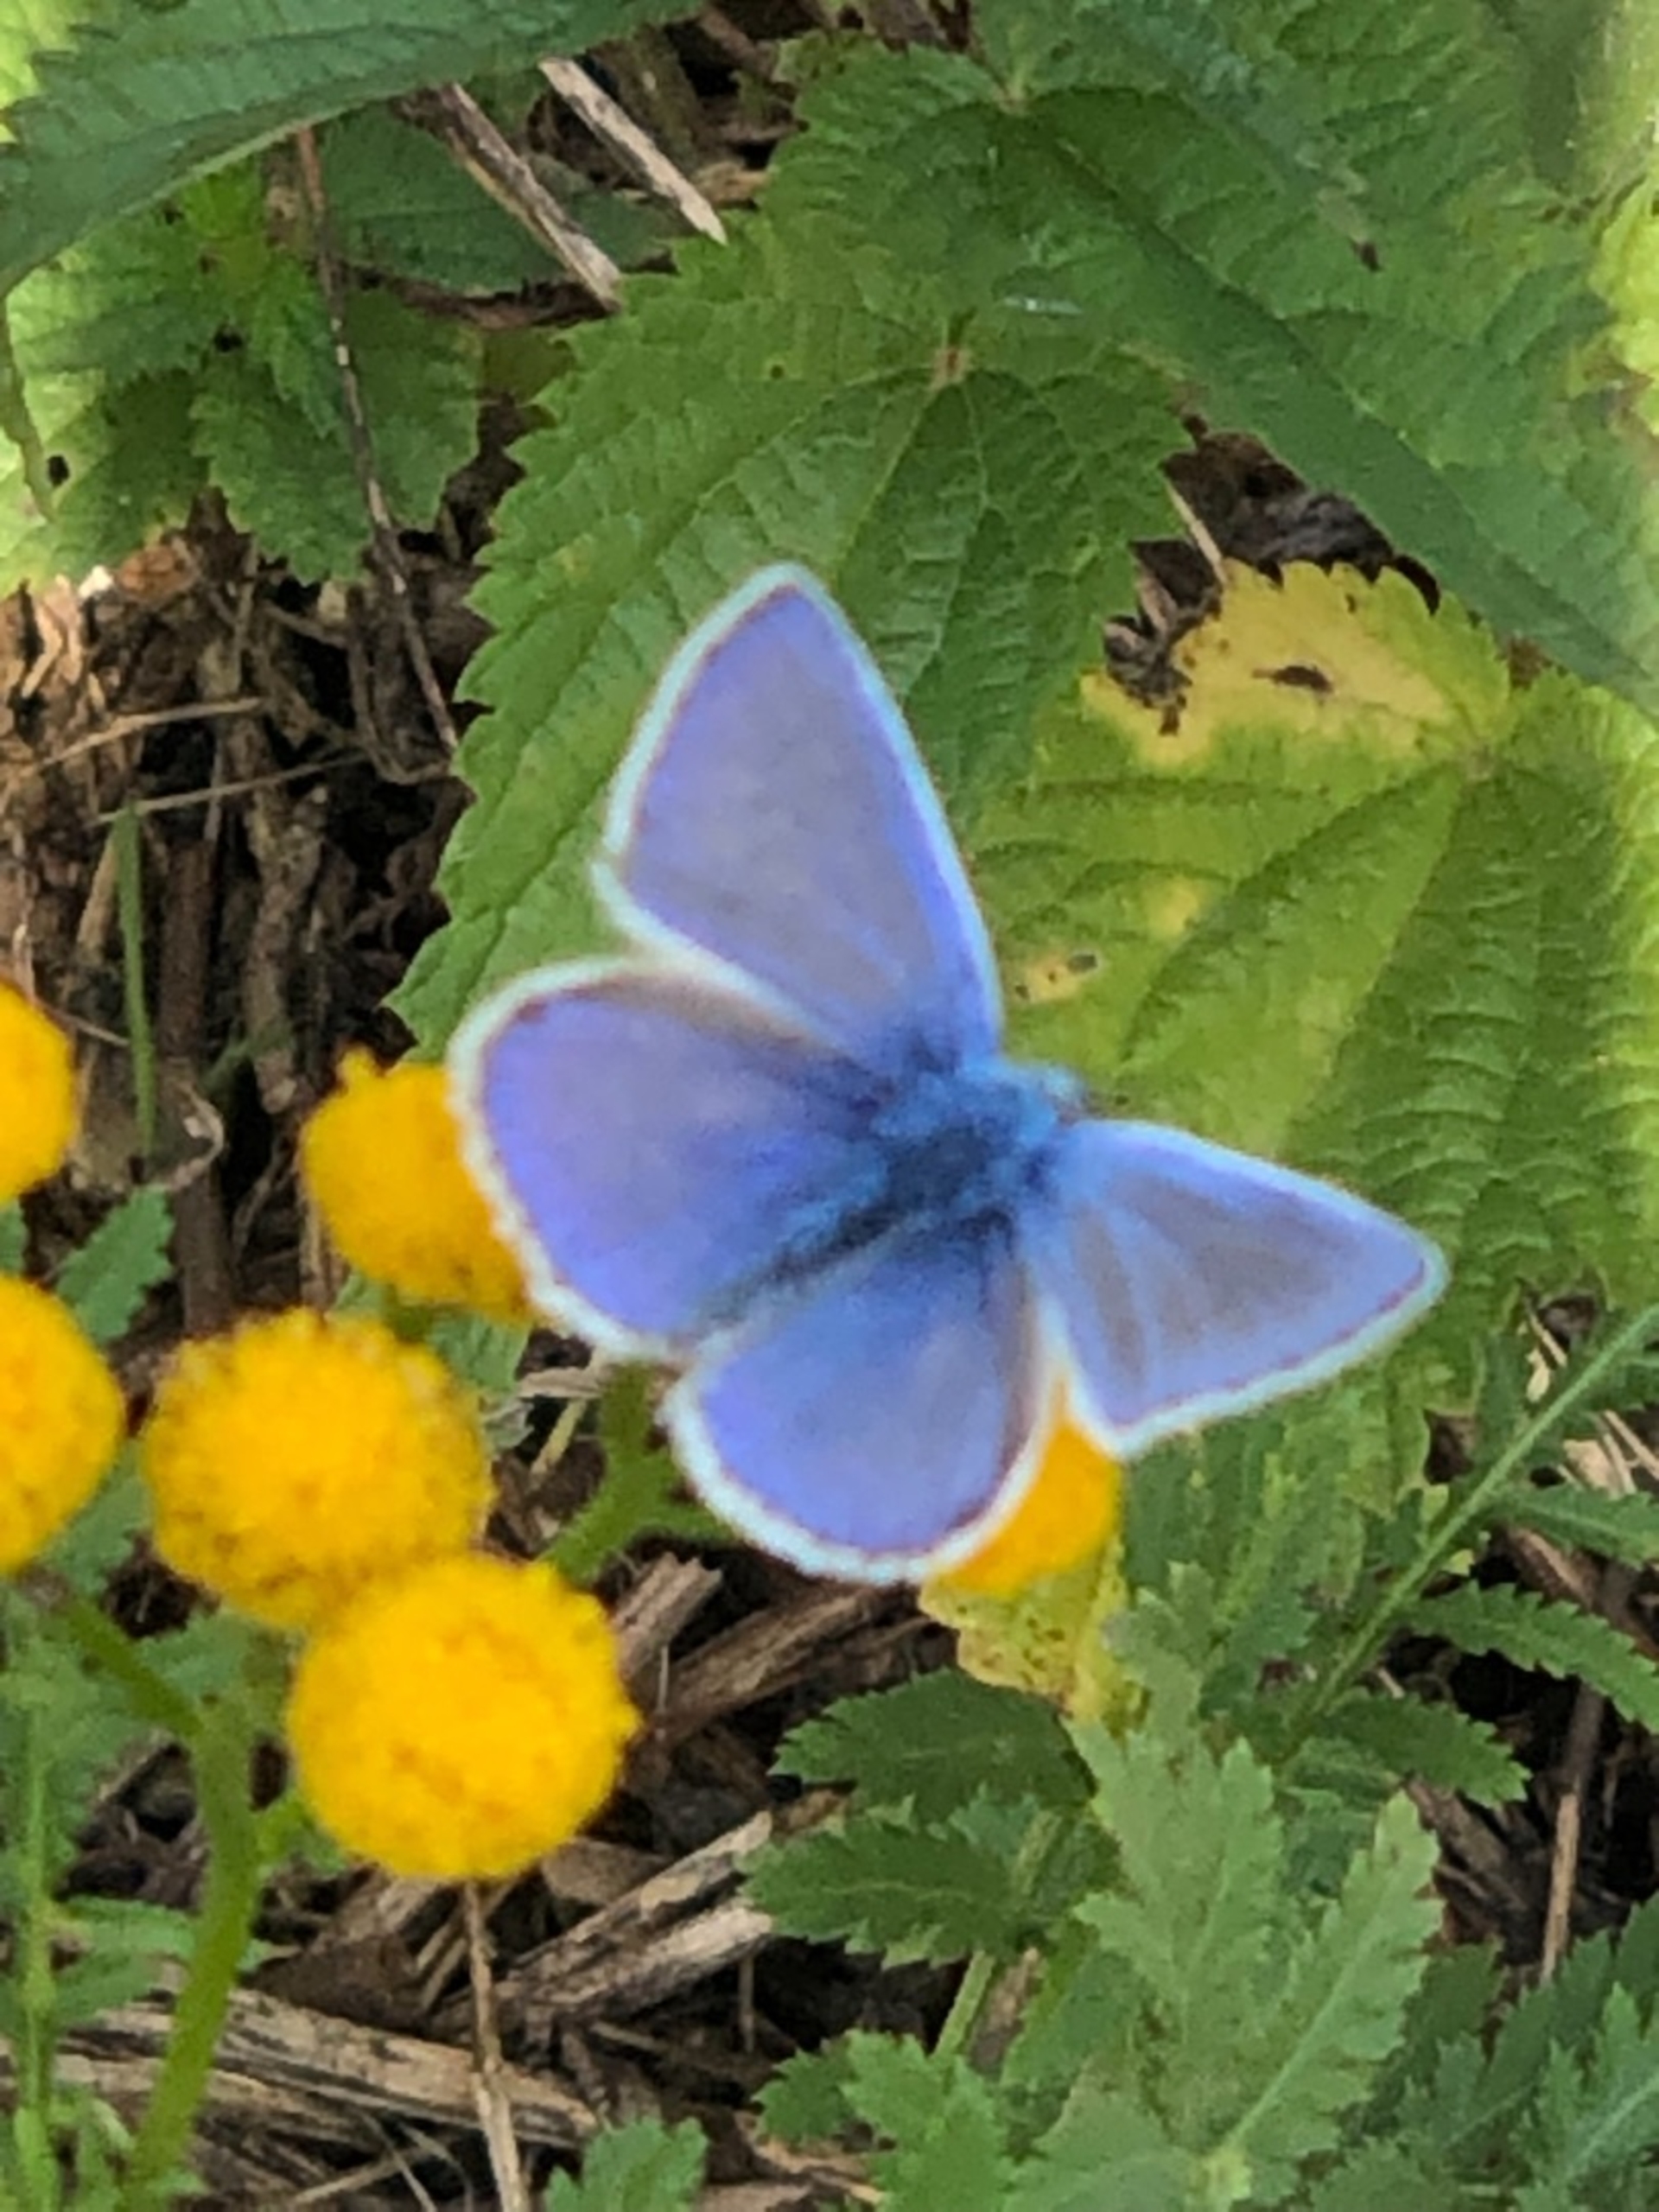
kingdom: Animalia
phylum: Arthropoda
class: Insecta
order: Lepidoptera
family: Lycaenidae
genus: Polyommatus
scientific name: Polyommatus icarus
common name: Almindelig blåfugl
